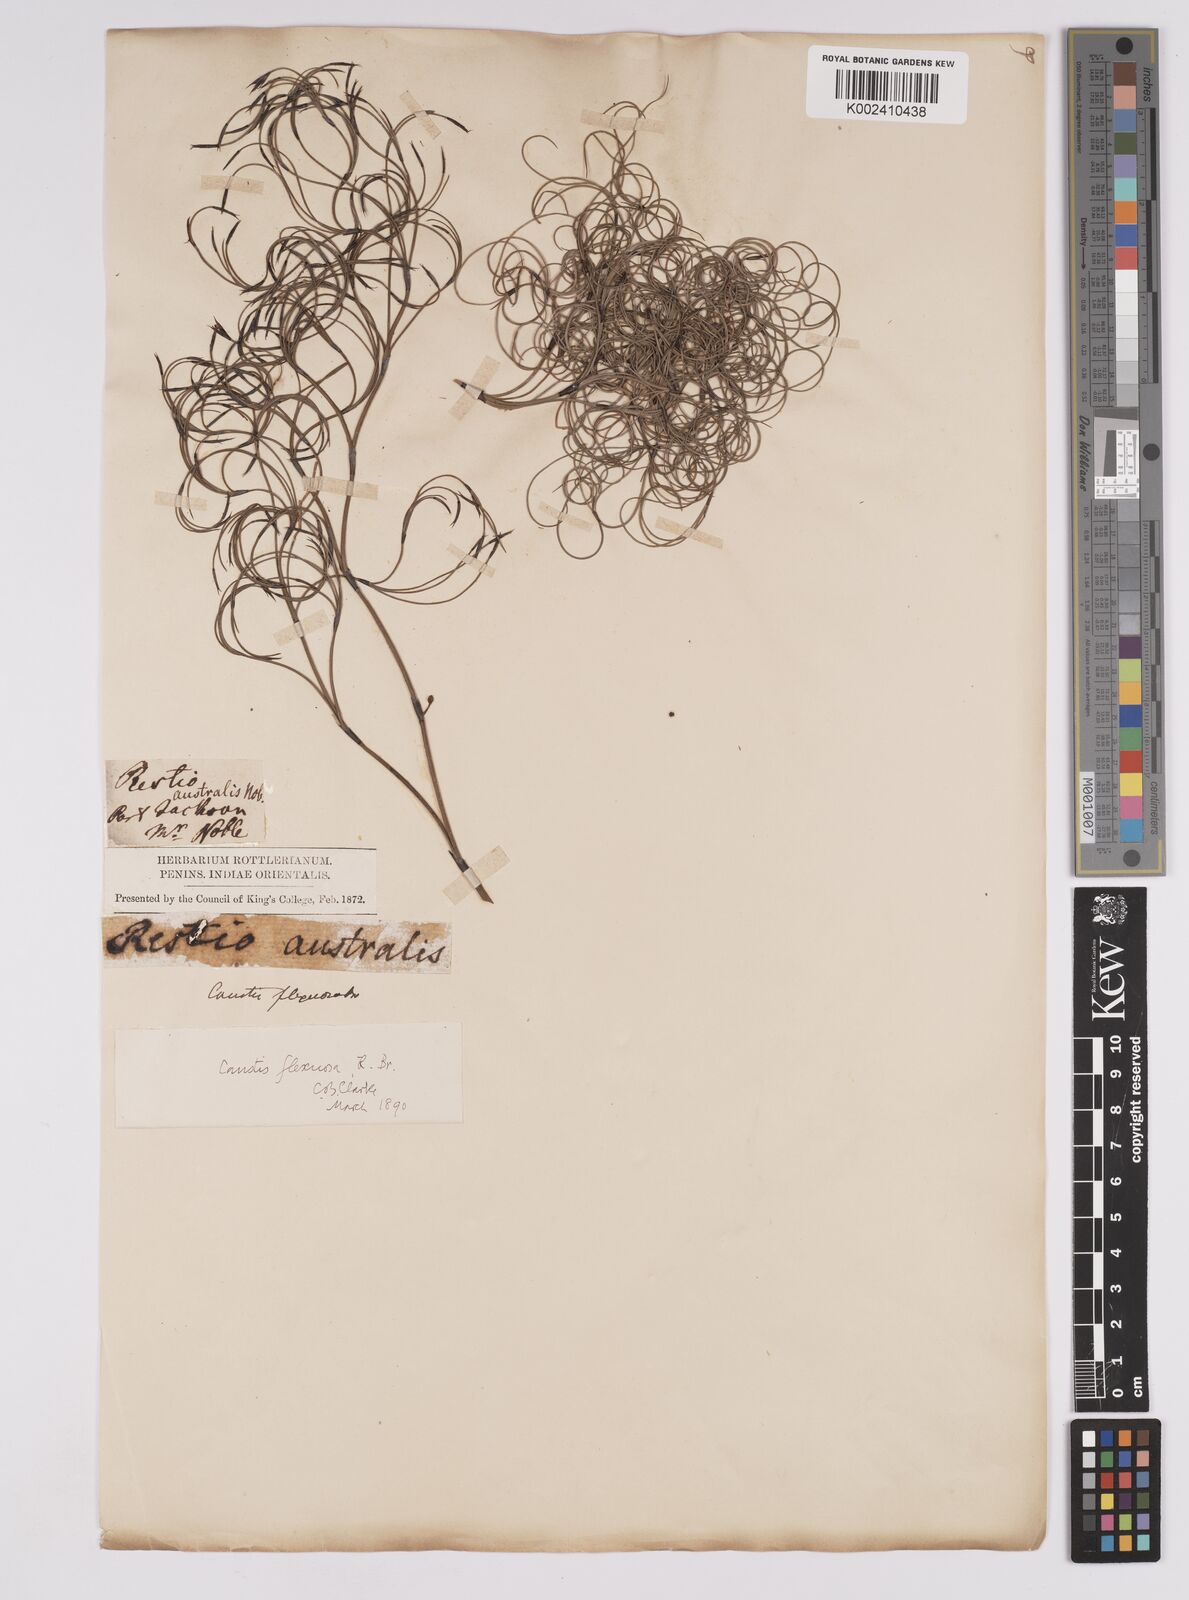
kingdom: Plantae
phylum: Tracheophyta
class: Liliopsida
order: Poales
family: Cyperaceae
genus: Caustis
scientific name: Caustis flexuosa
